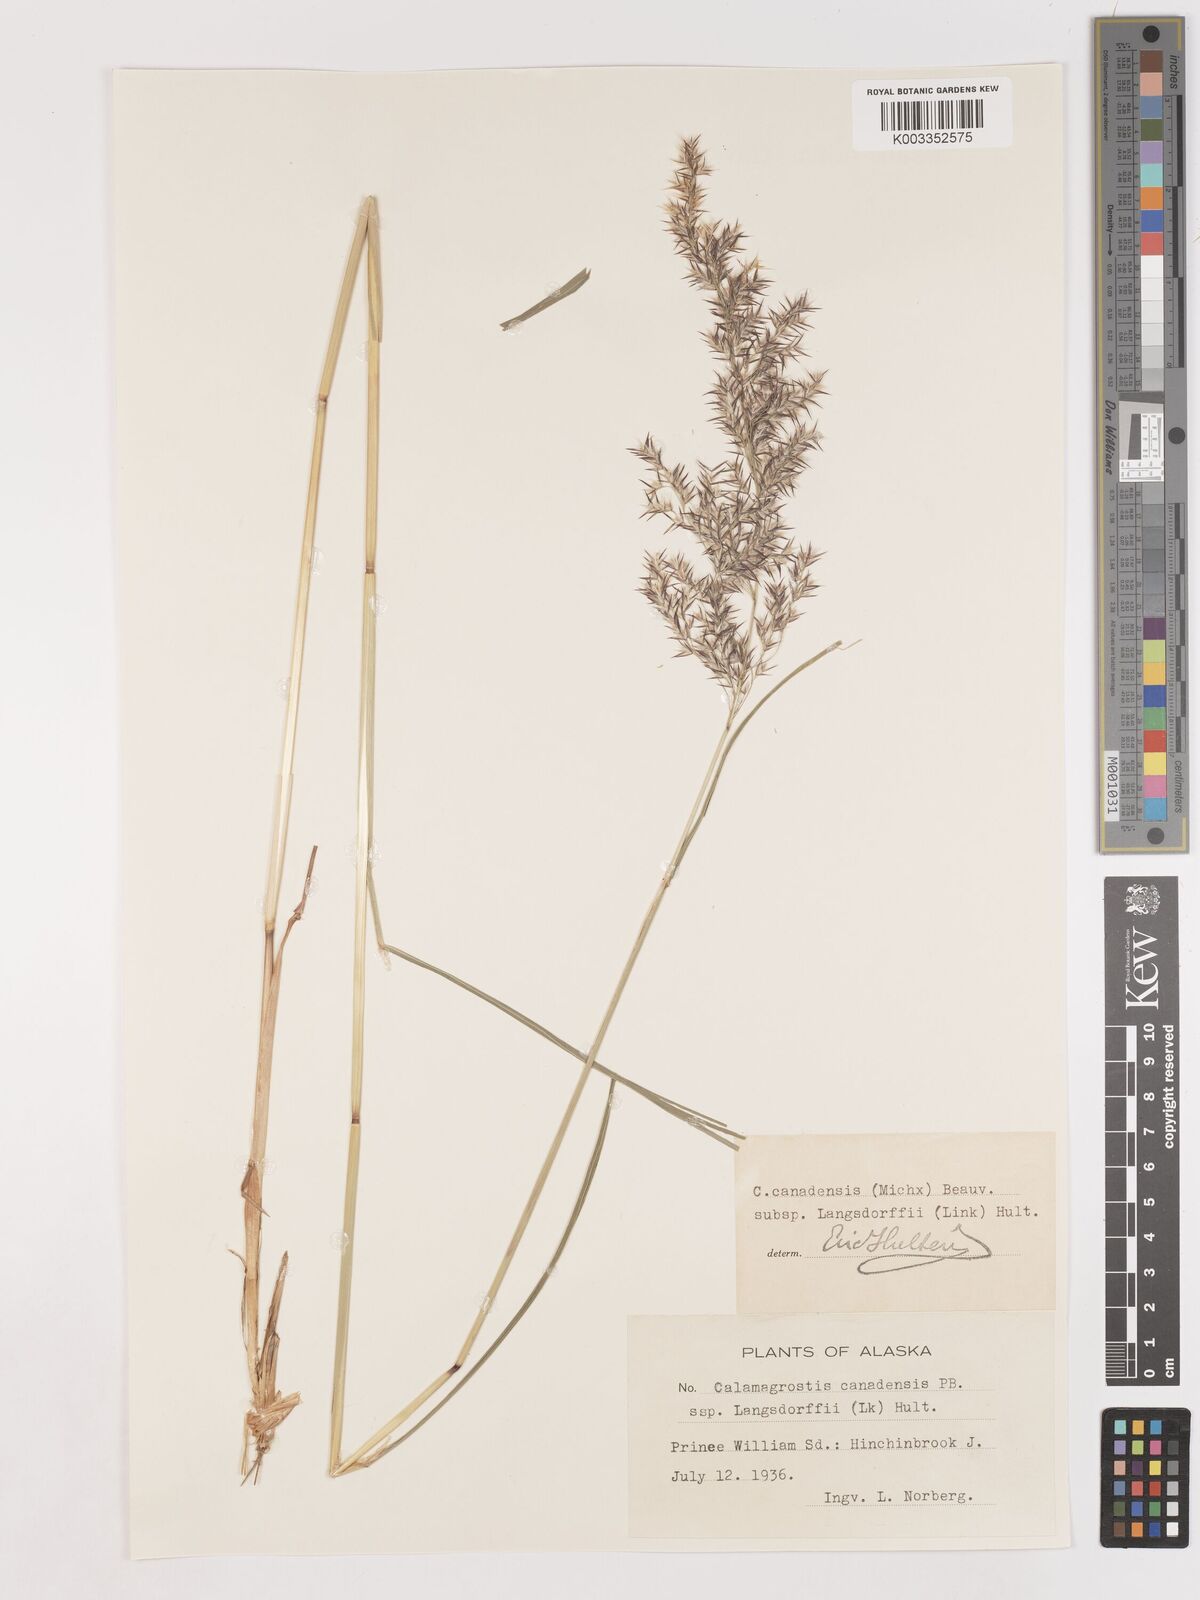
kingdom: Plantae
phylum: Tracheophyta
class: Liliopsida
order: Poales
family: Poaceae
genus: Calamagrostis
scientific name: Calamagrostis canadensis
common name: Canada bluejoint
